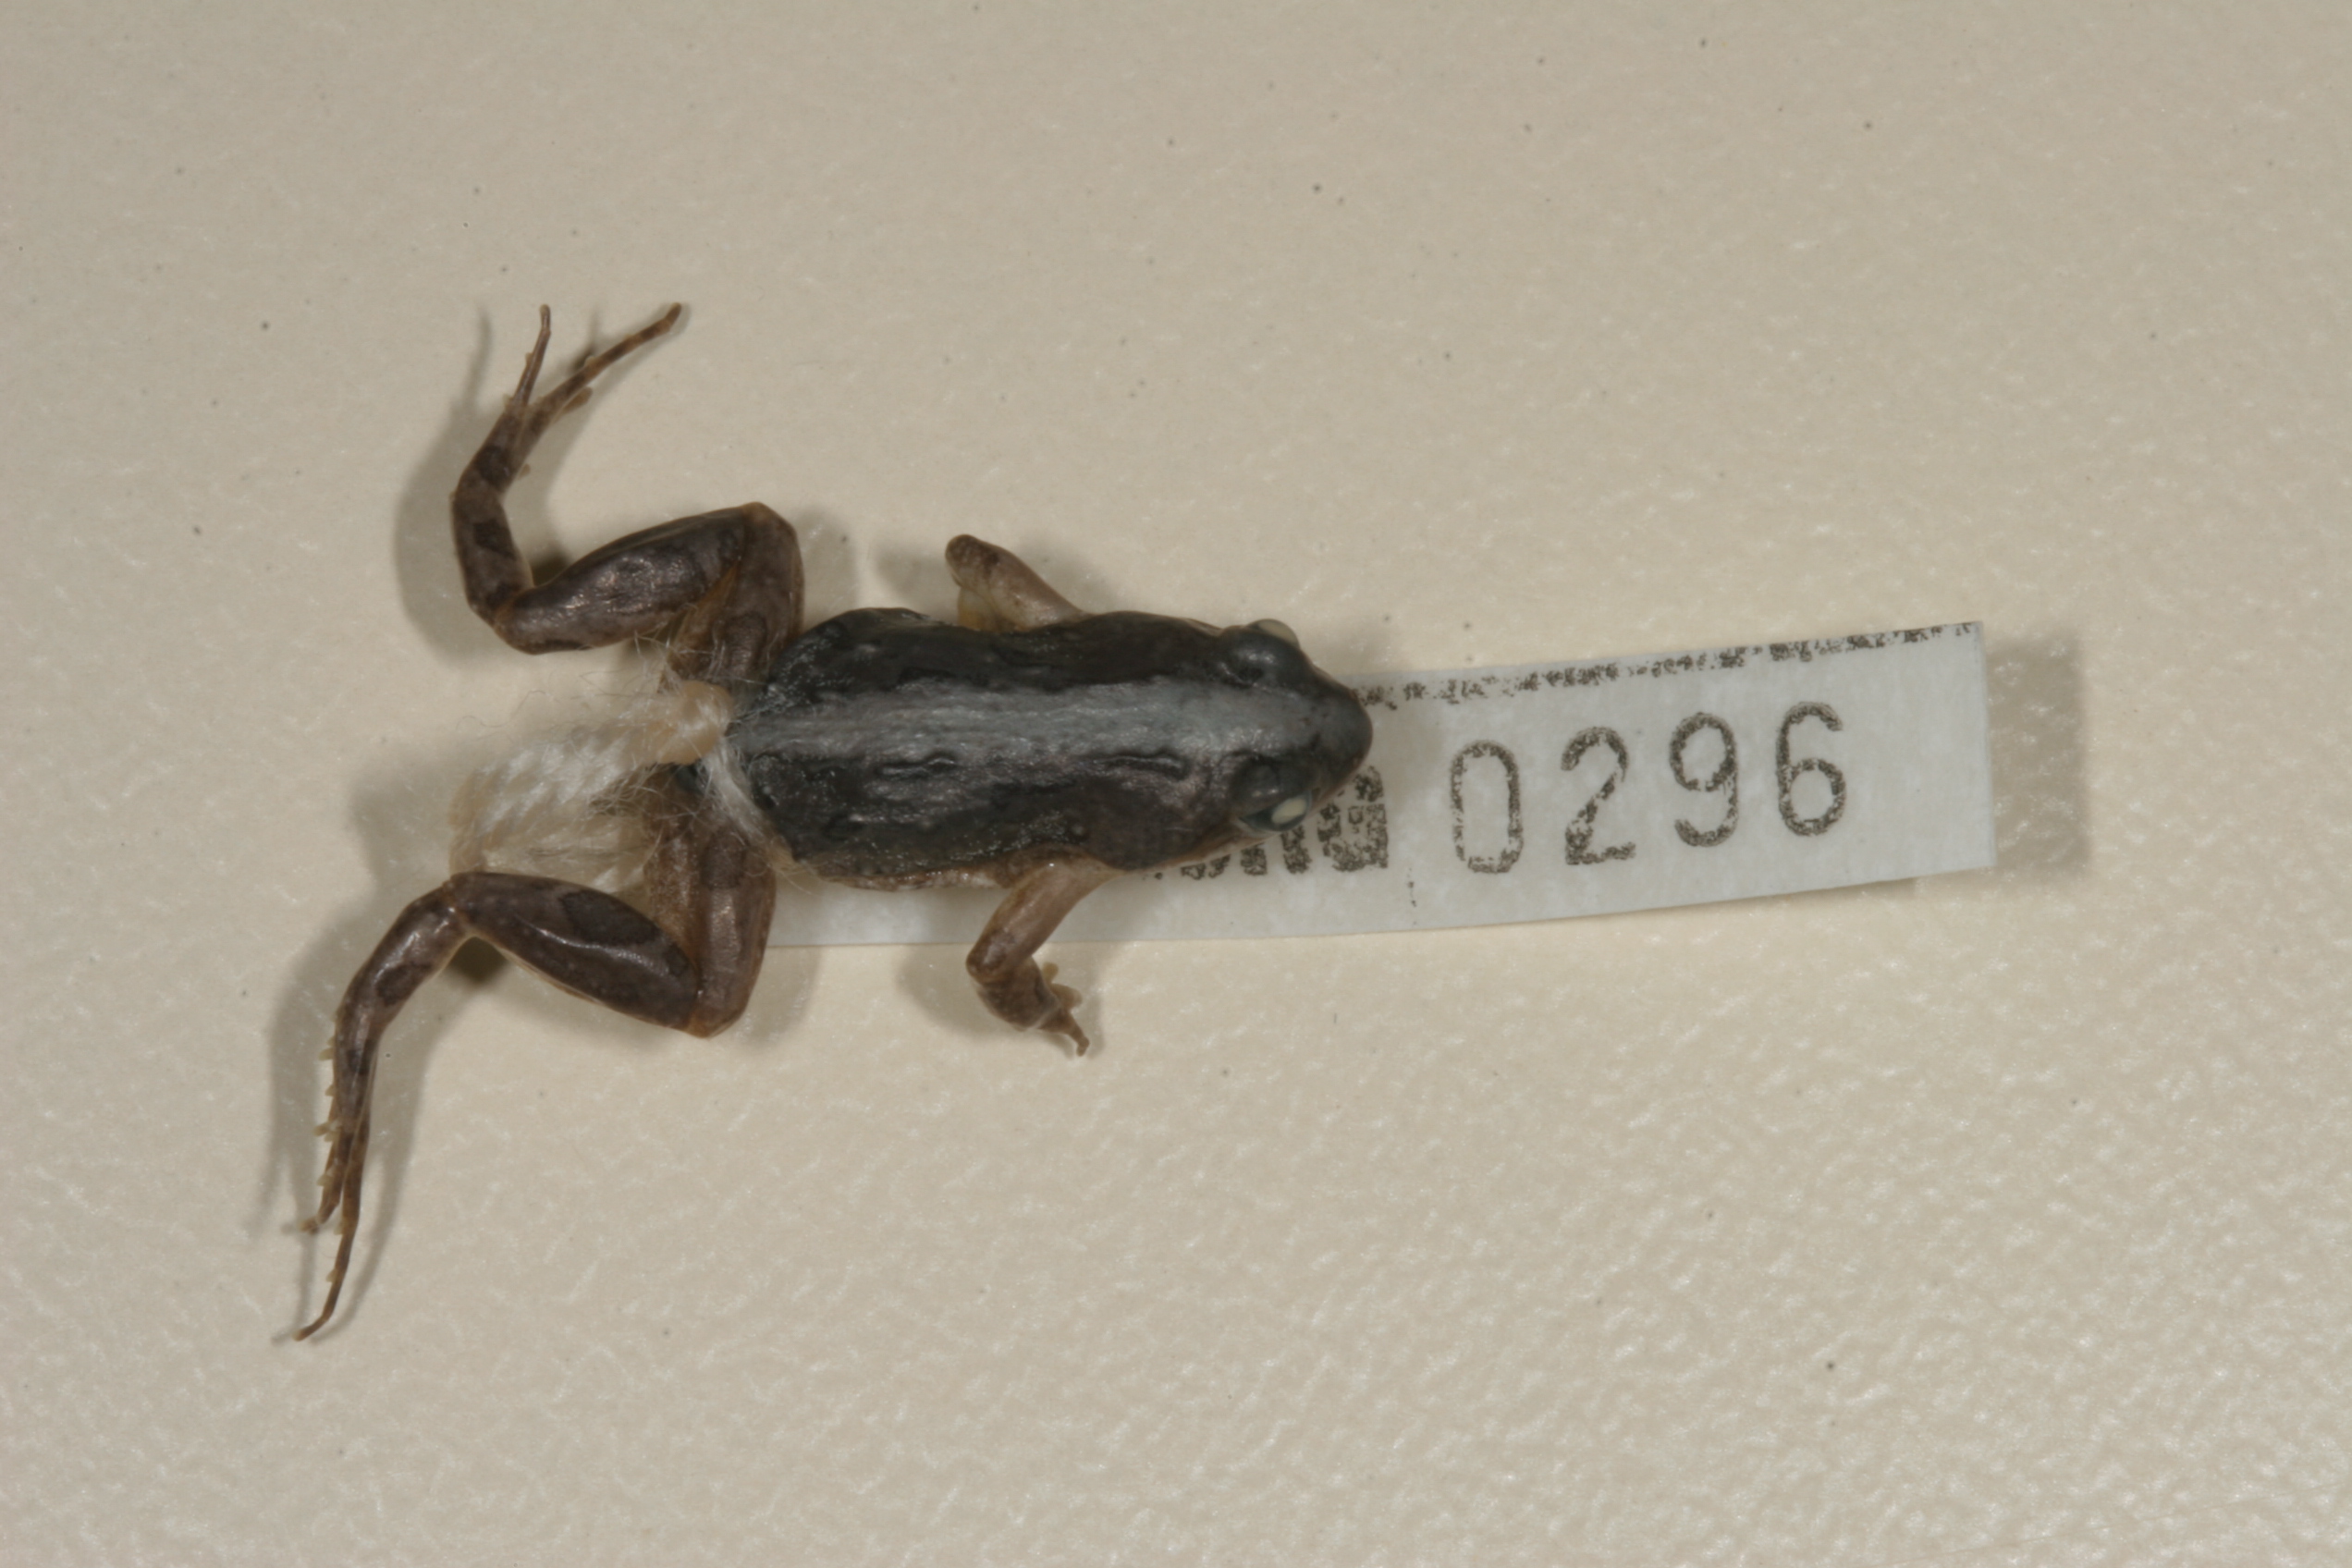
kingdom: Animalia
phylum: Chordata
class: Amphibia
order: Anura
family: Pyxicephalidae
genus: Cacosternum
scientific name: Cacosternum boettgeri
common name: Boettger's frog
